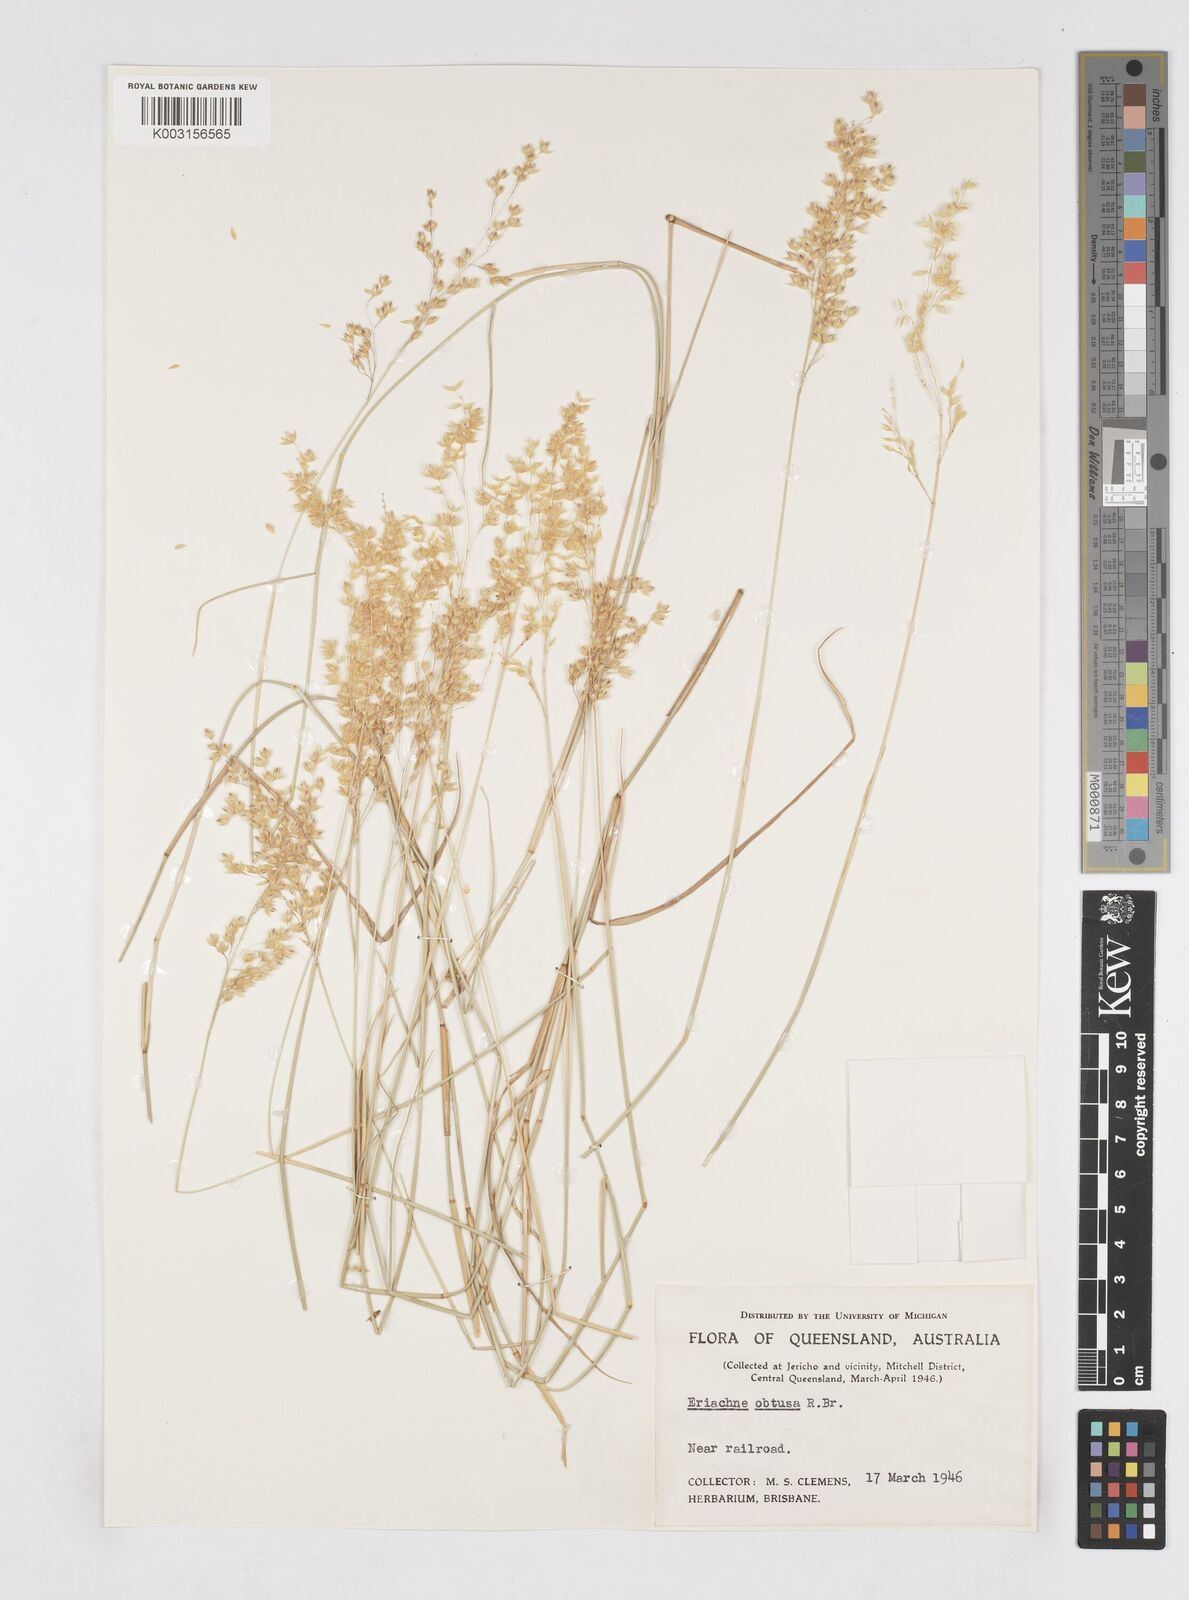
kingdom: Plantae
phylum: Tracheophyta
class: Liliopsida
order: Poales
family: Poaceae
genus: Eriachne
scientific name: Eriachne obtusa
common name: Northern wanderrie grass
